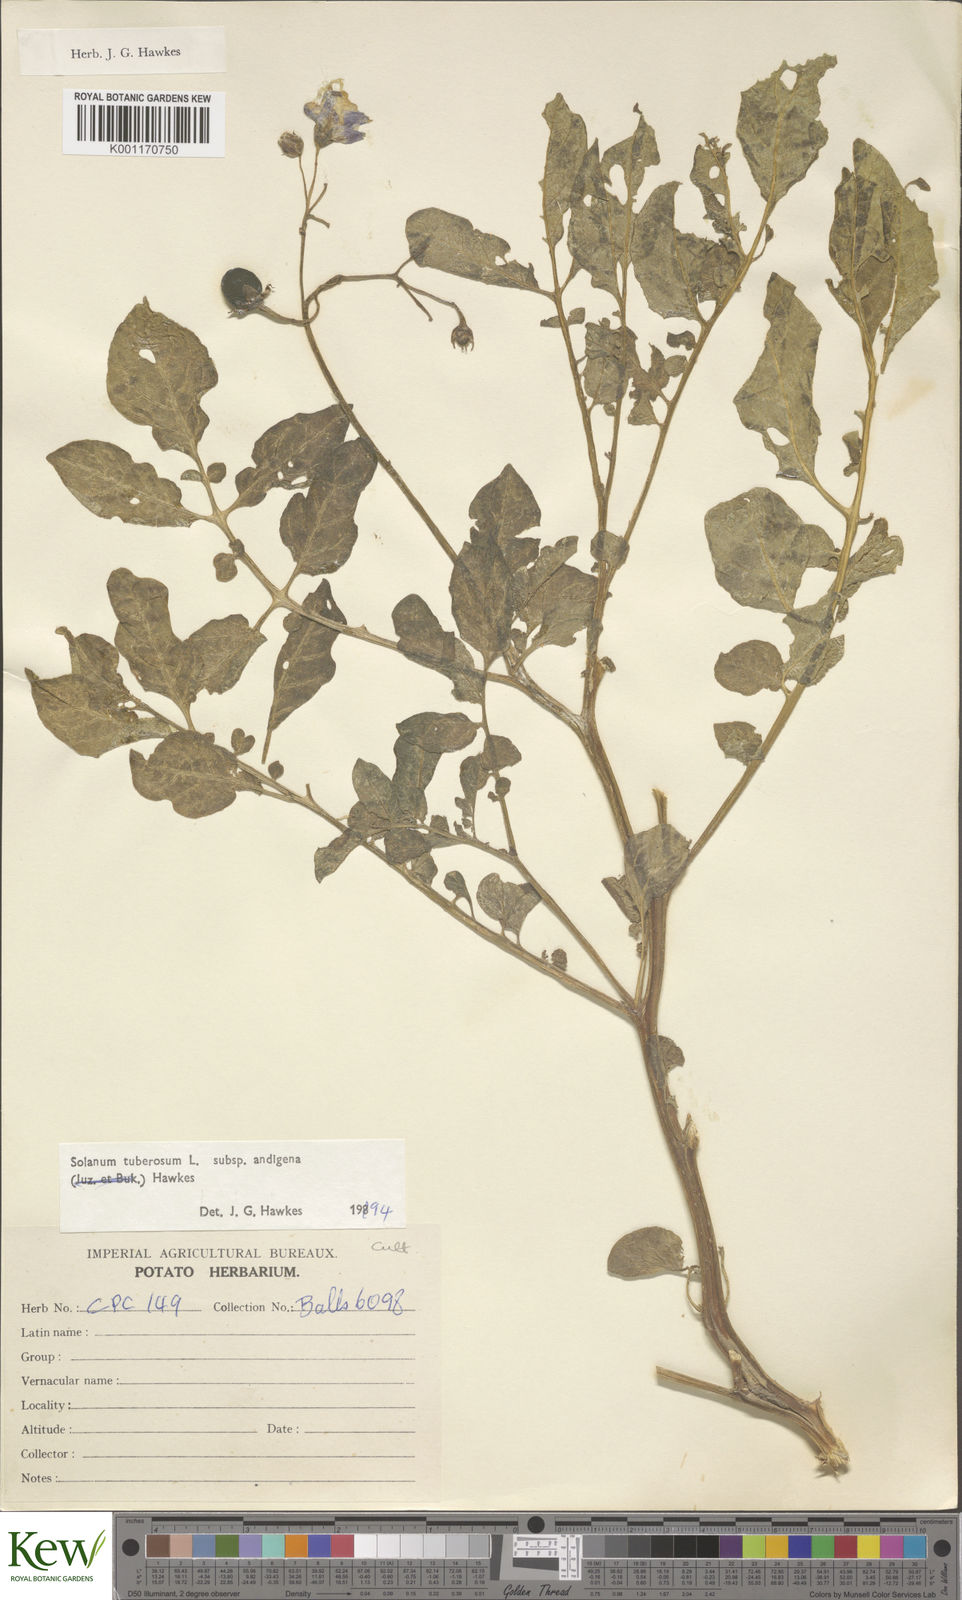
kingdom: Plantae
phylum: Tracheophyta
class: Magnoliopsida
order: Solanales
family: Solanaceae
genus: Solanum
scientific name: Solanum tuberosum
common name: Potato
